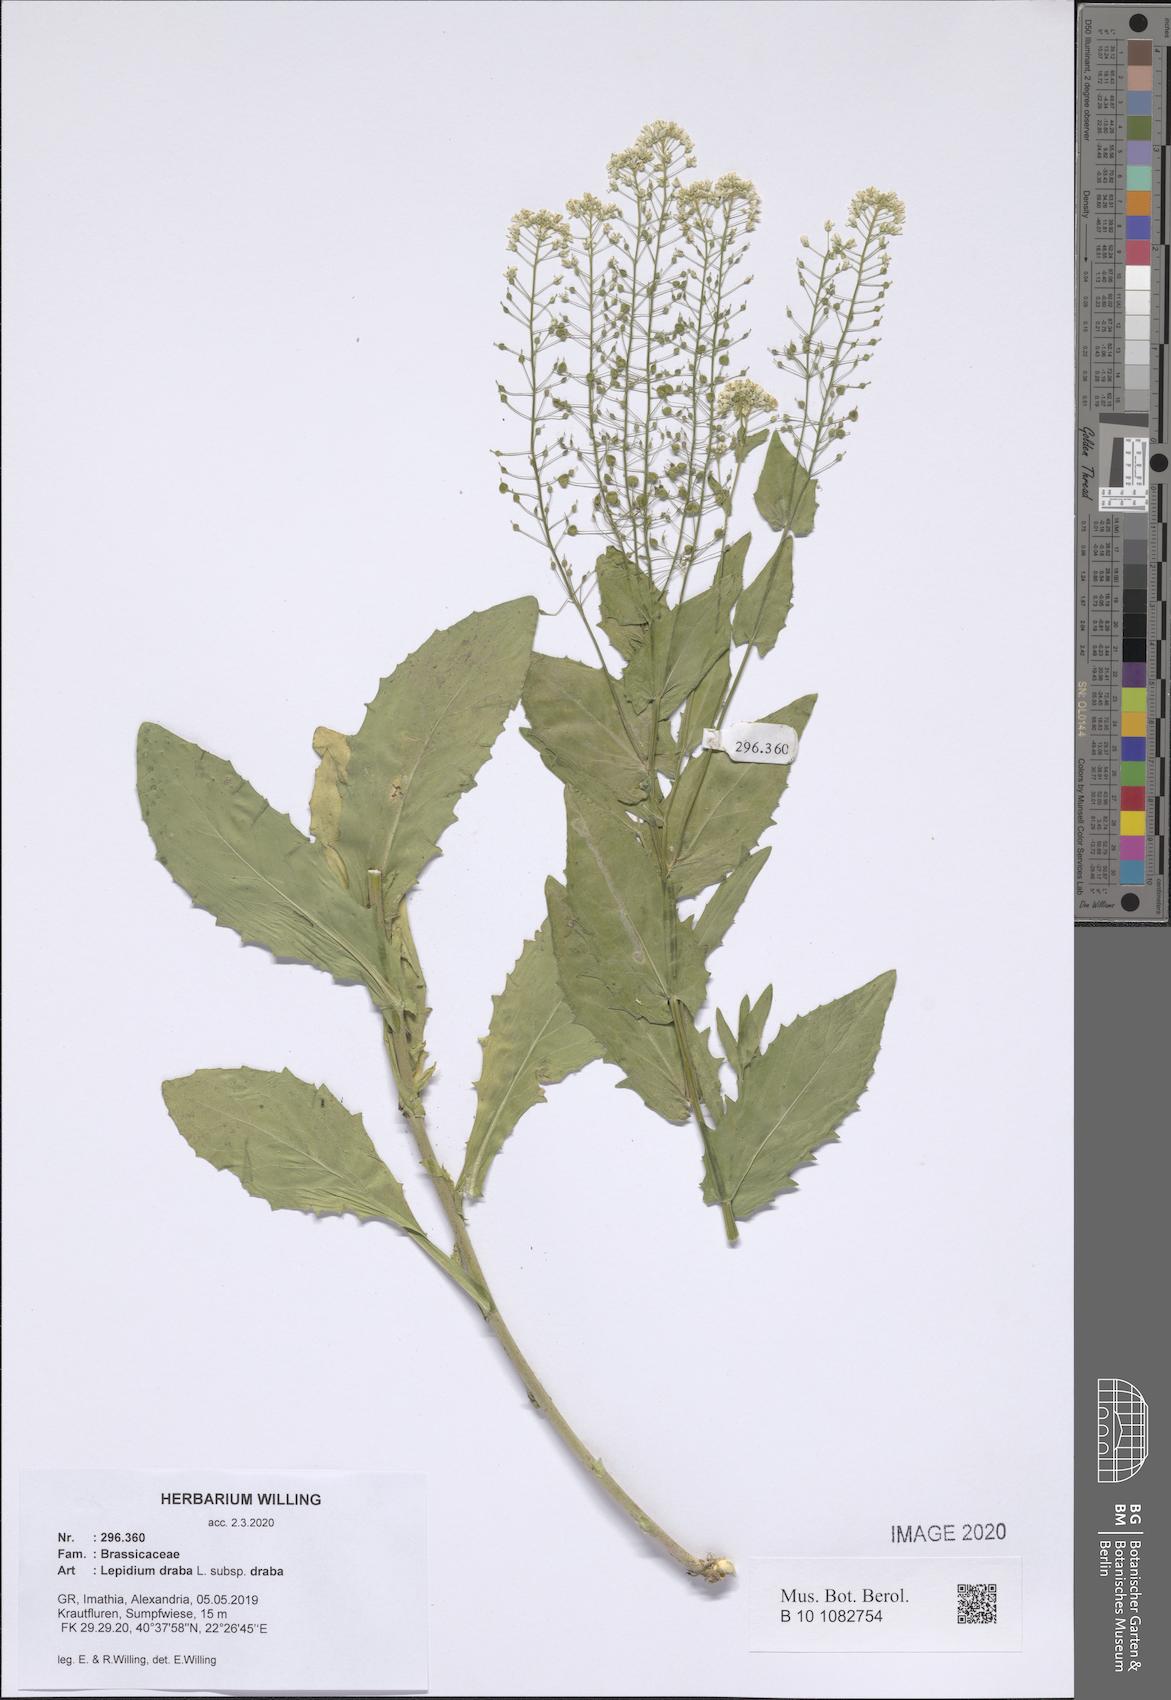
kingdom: Plantae
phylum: Tracheophyta
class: Magnoliopsida
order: Brassicales
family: Brassicaceae
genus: Lepidium
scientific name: Lepidium draba
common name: Hoary cress
